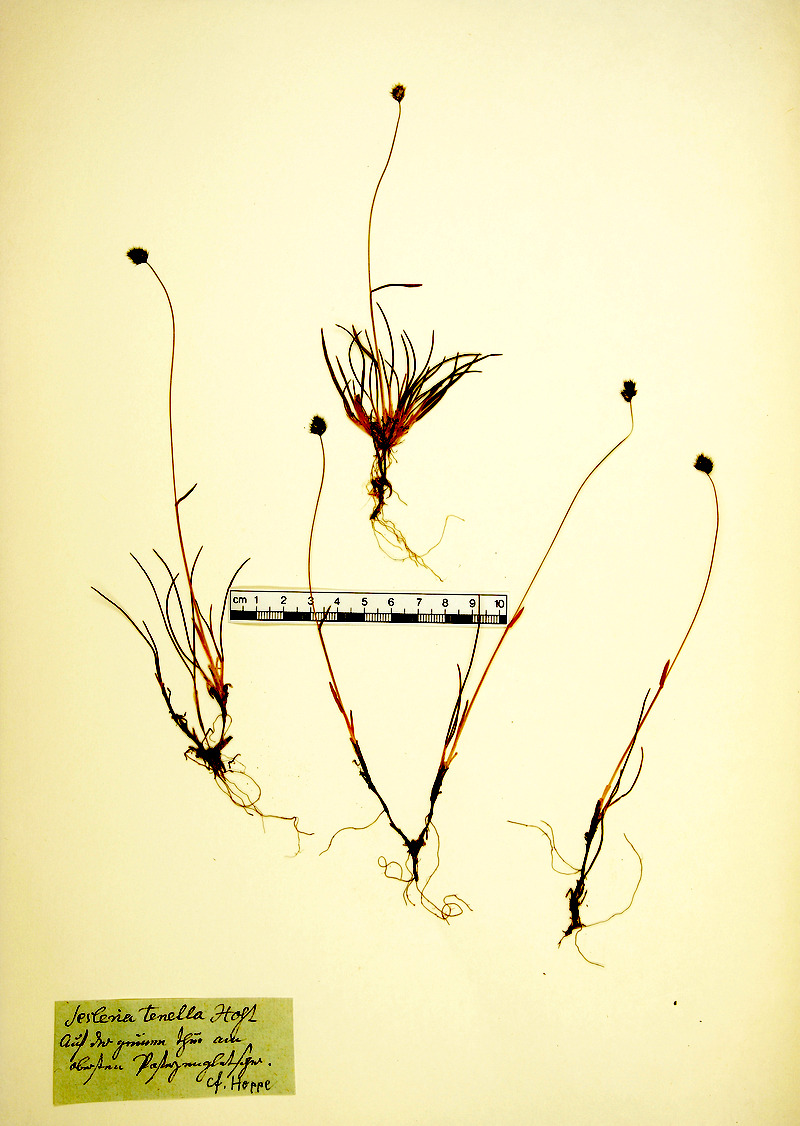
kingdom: Plantae
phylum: Tracheophyta
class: Liliopsida
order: Poales
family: Poaceae
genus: Psilathera
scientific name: Psilathera ovata
